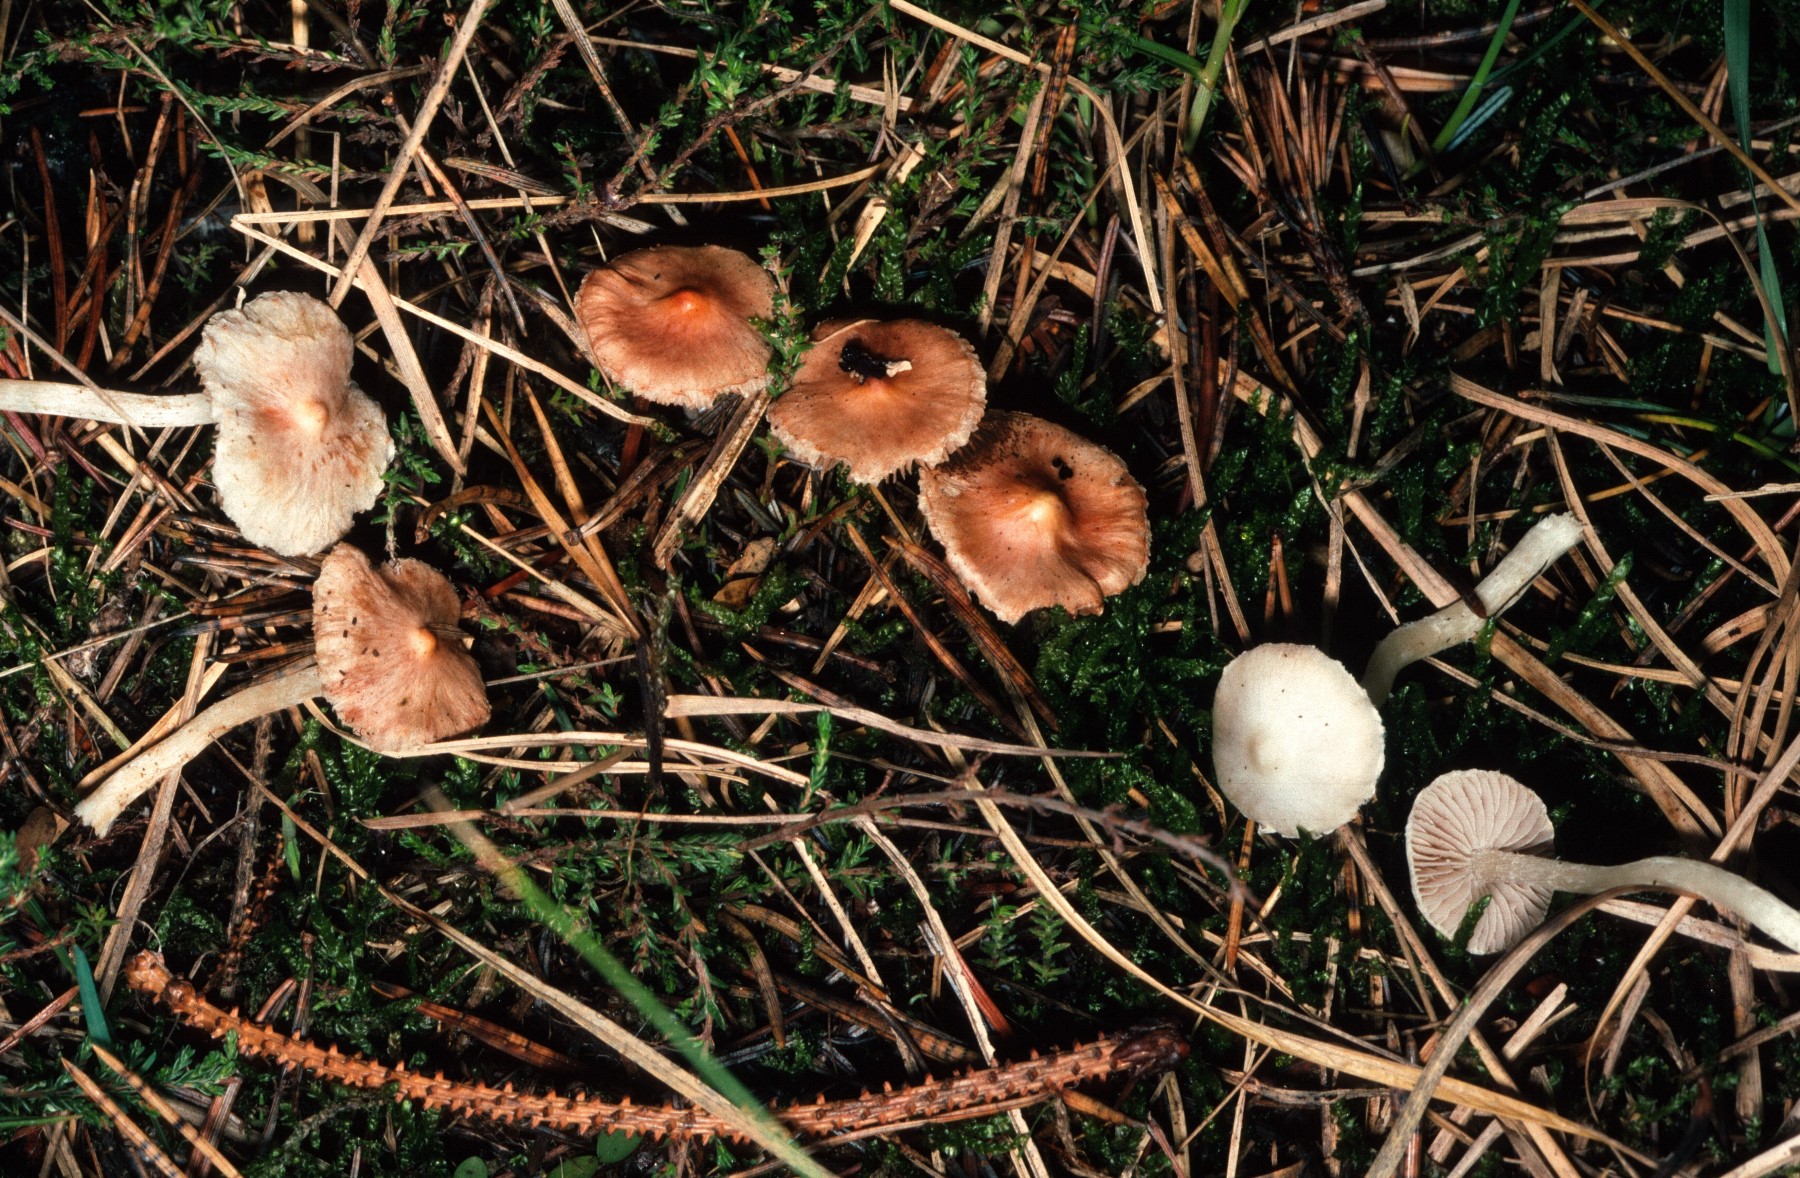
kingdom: Fungi
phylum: Basidiomycota
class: Agaricomycetes
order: Agaricales
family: Inocybaceae
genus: Inocybe
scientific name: Inocybe
